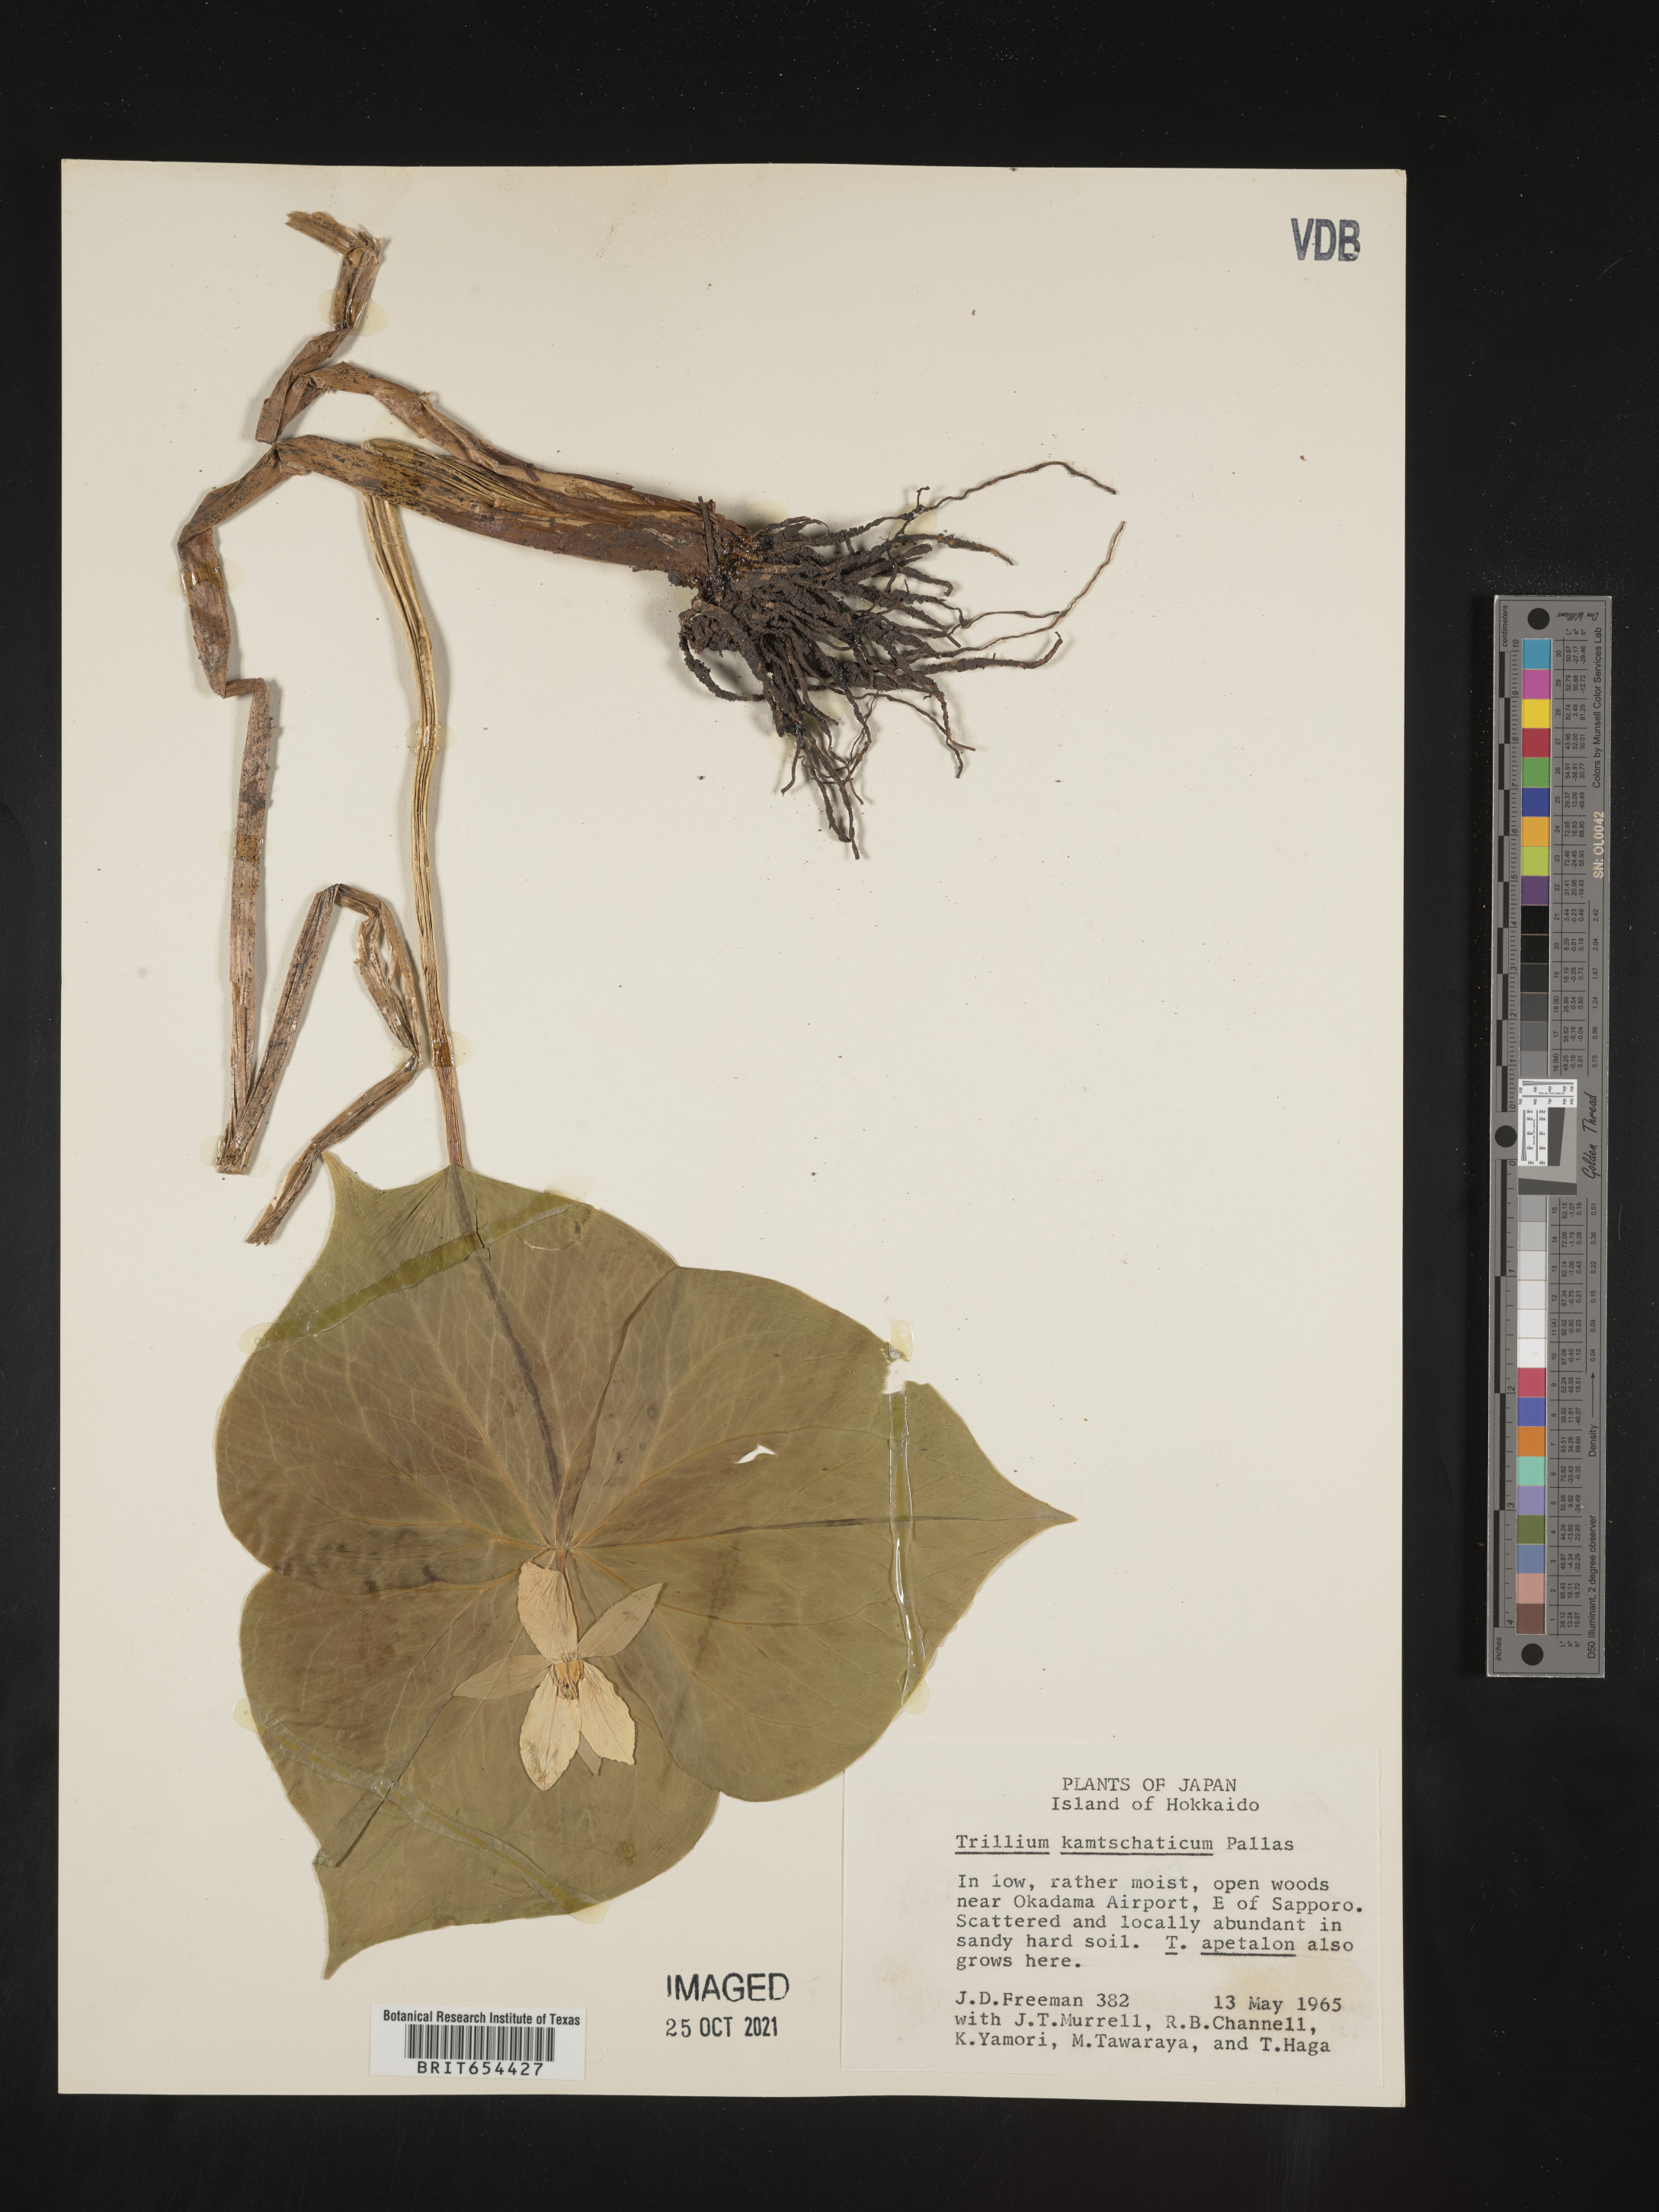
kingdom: Plantae
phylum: Tracheophyta
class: Liliopsida
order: Liliales
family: Melanthiaceae
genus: Trillium
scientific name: Trillium
